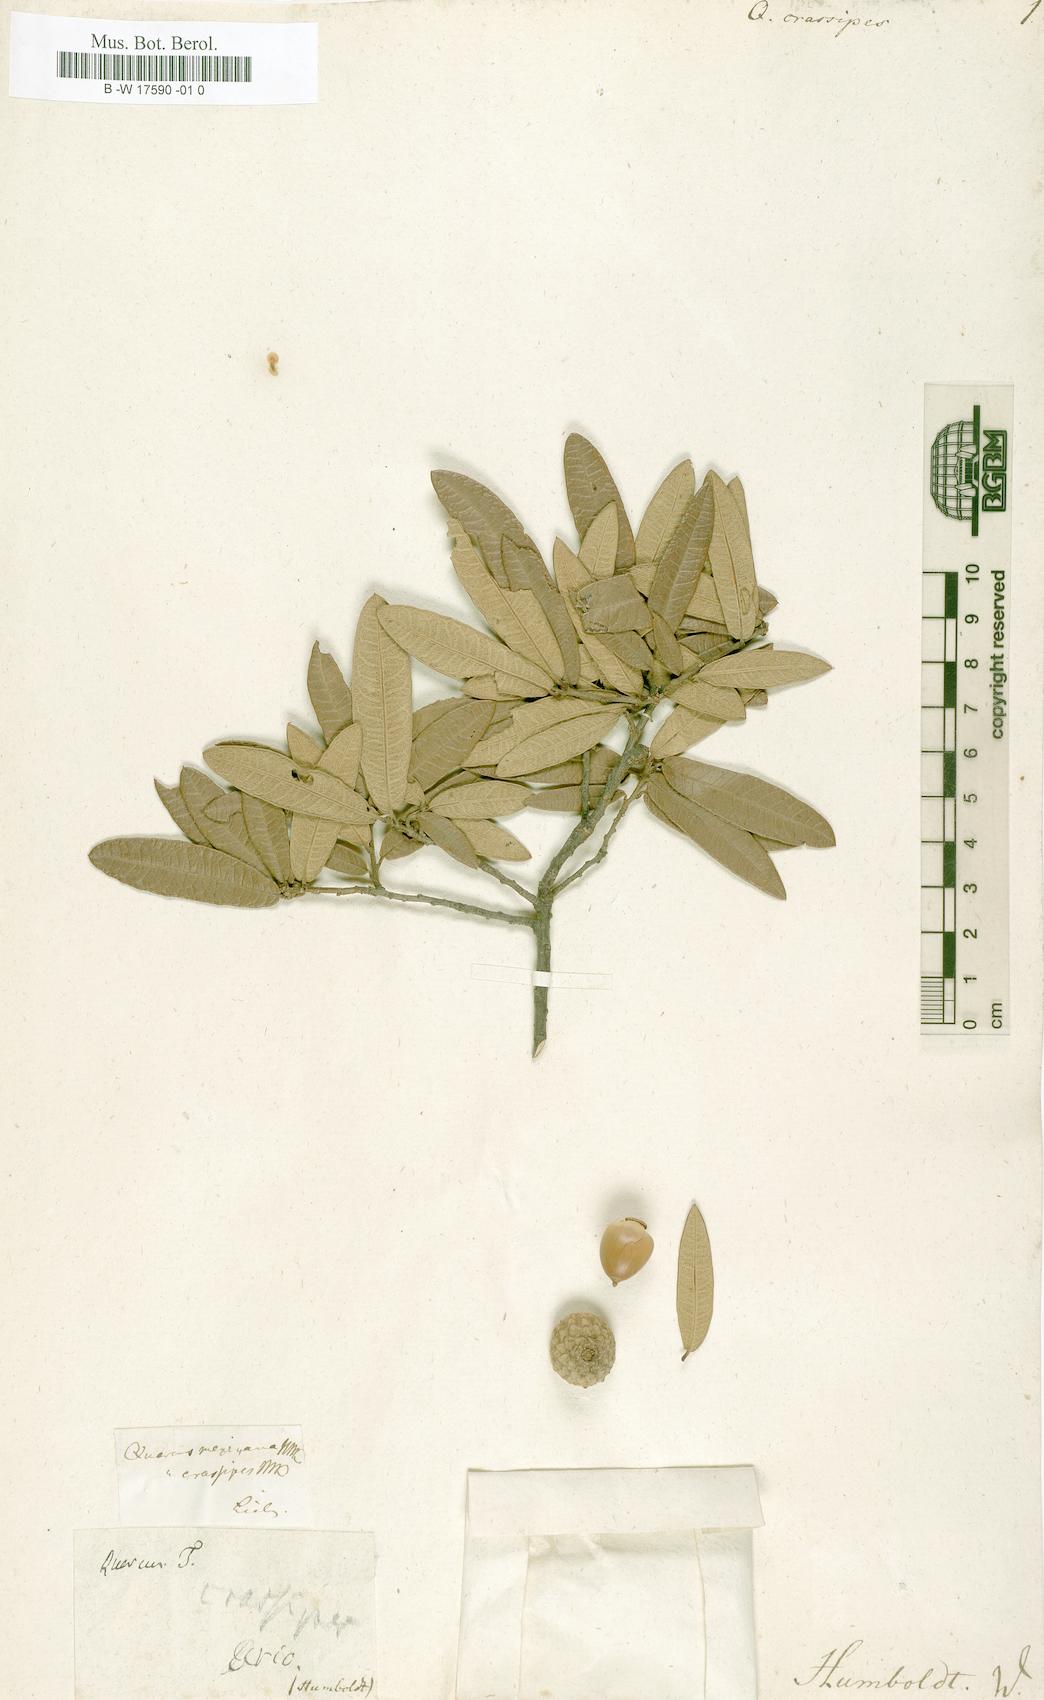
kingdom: Plantae
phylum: Tracheophyta
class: Magnoliopsida
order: Fagales
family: Fagaceae
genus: Quercus
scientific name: Quercus crassipes
